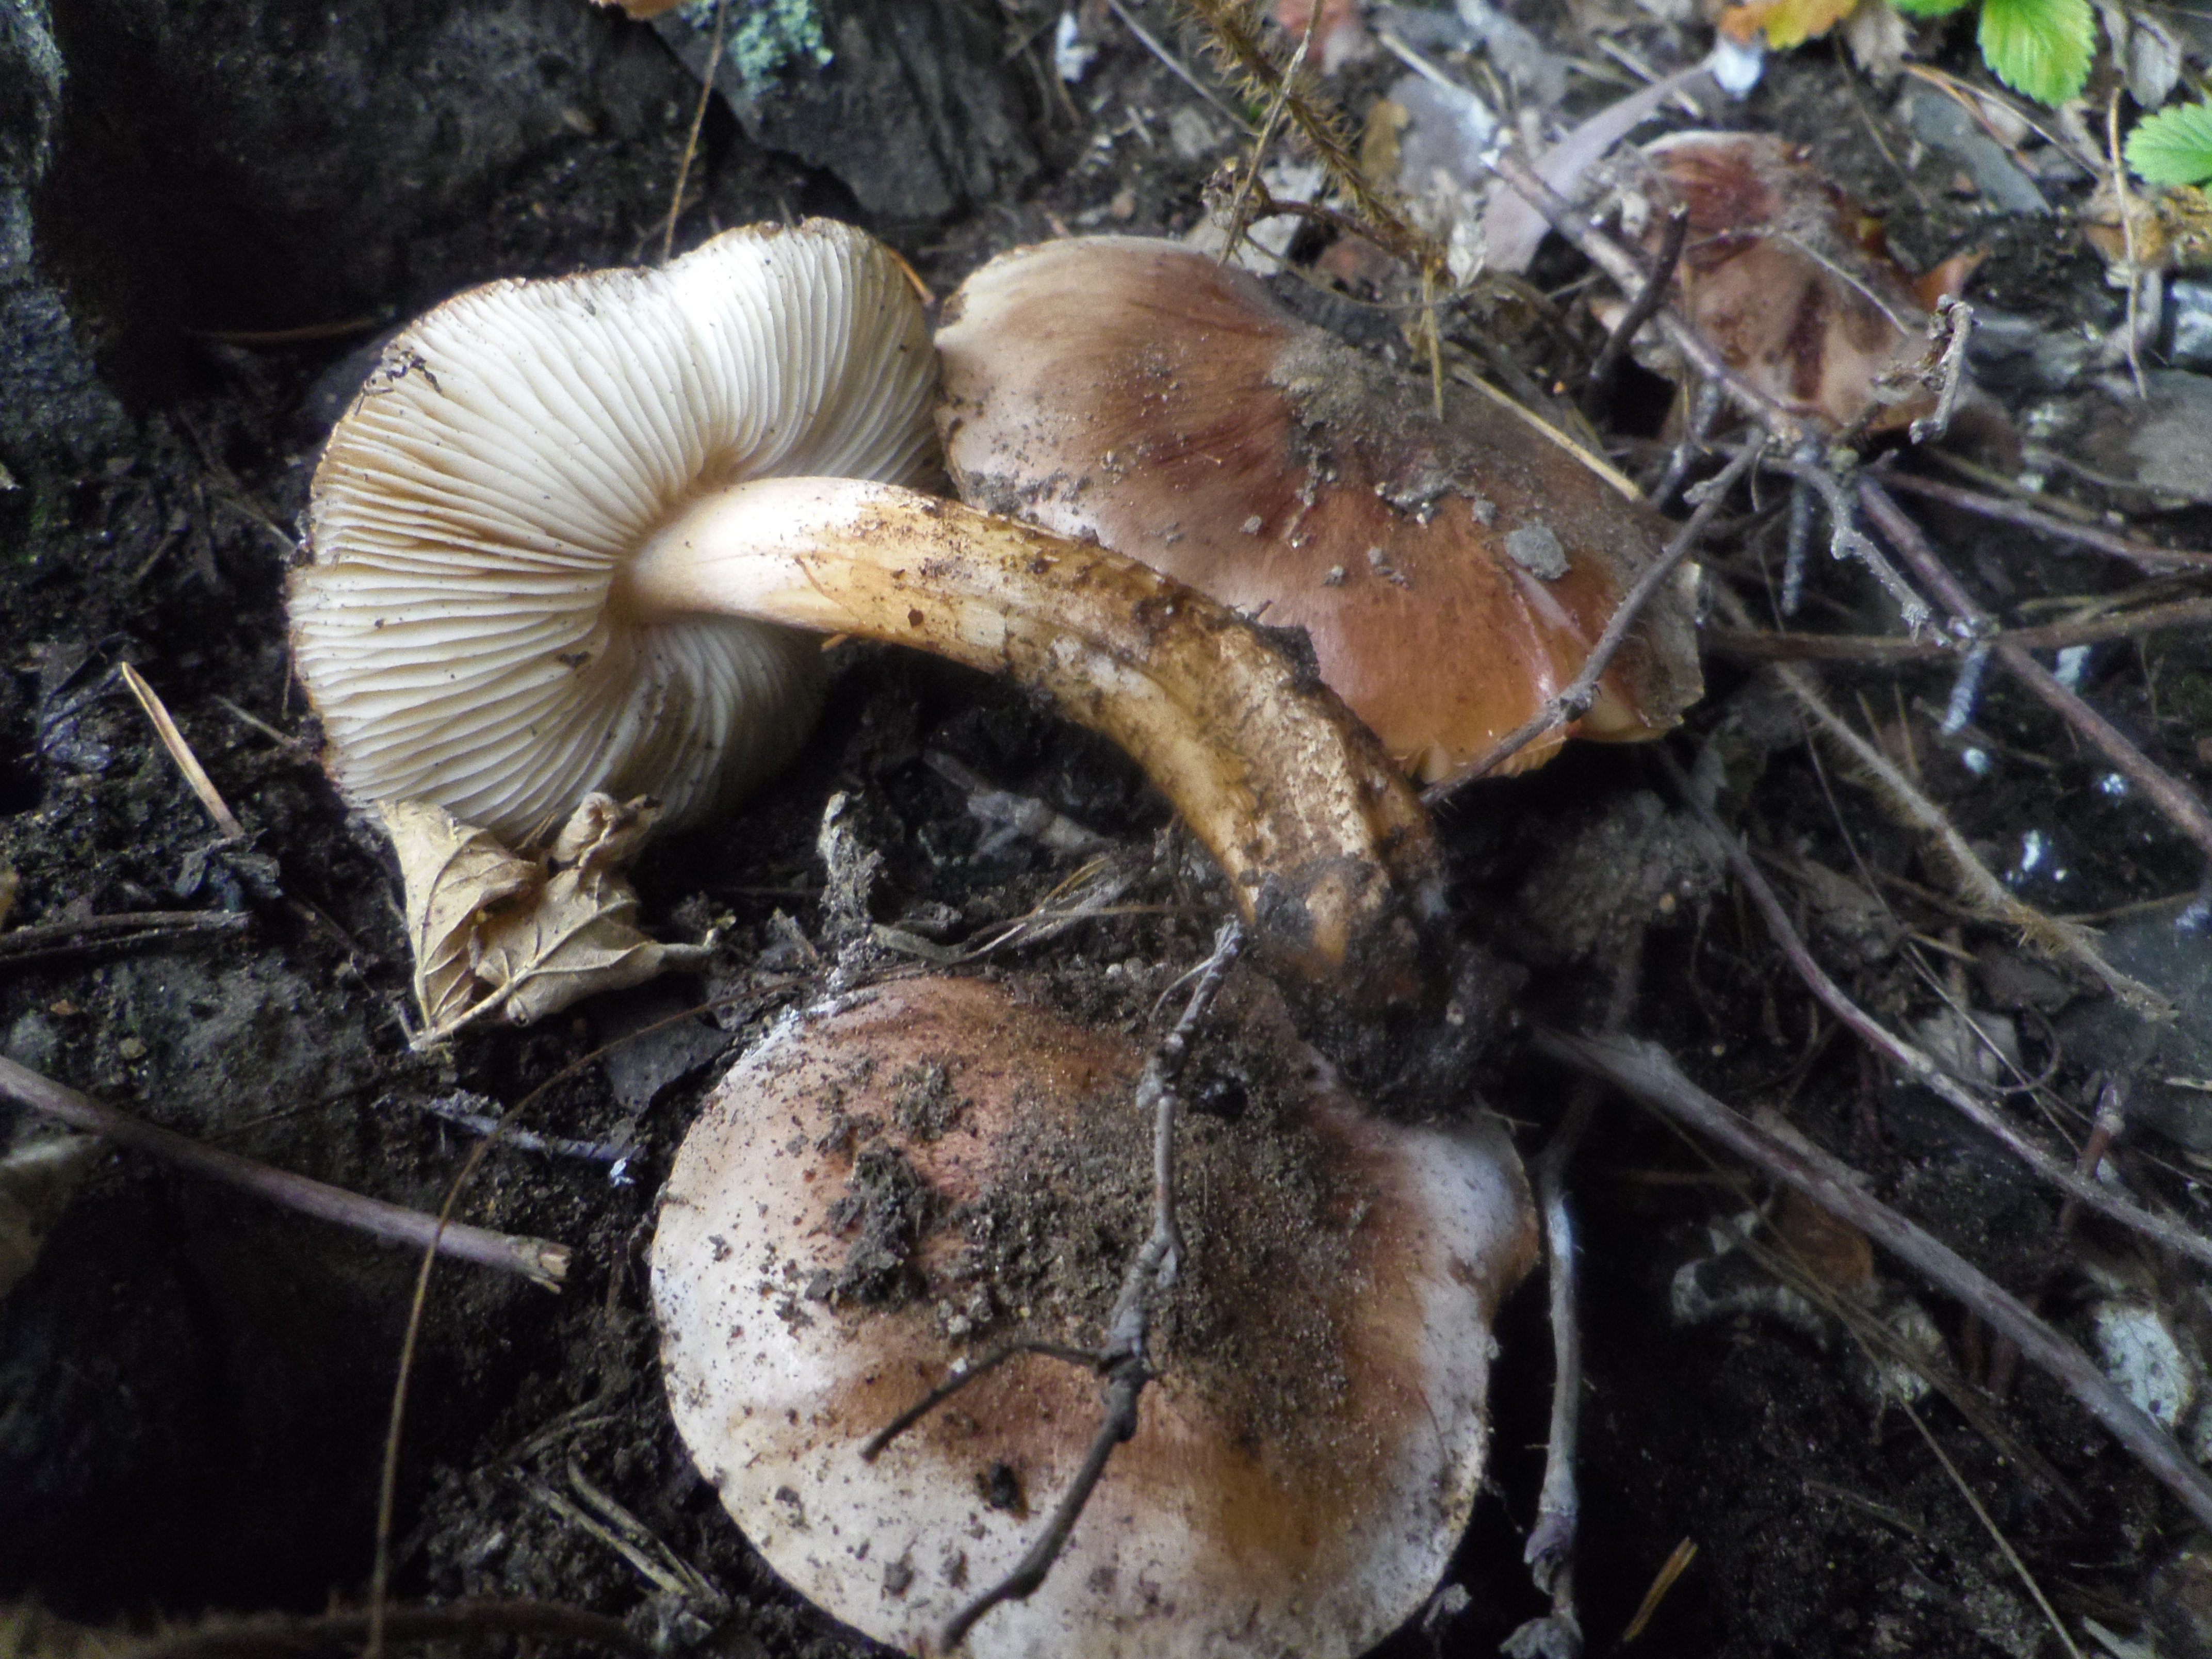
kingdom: Fungi
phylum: Basidiomycota
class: Agaricomycetes
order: Agaricales
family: Tricholomataceae
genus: Tricholoma
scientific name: Tricholoma populinum
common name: Poplar knight
